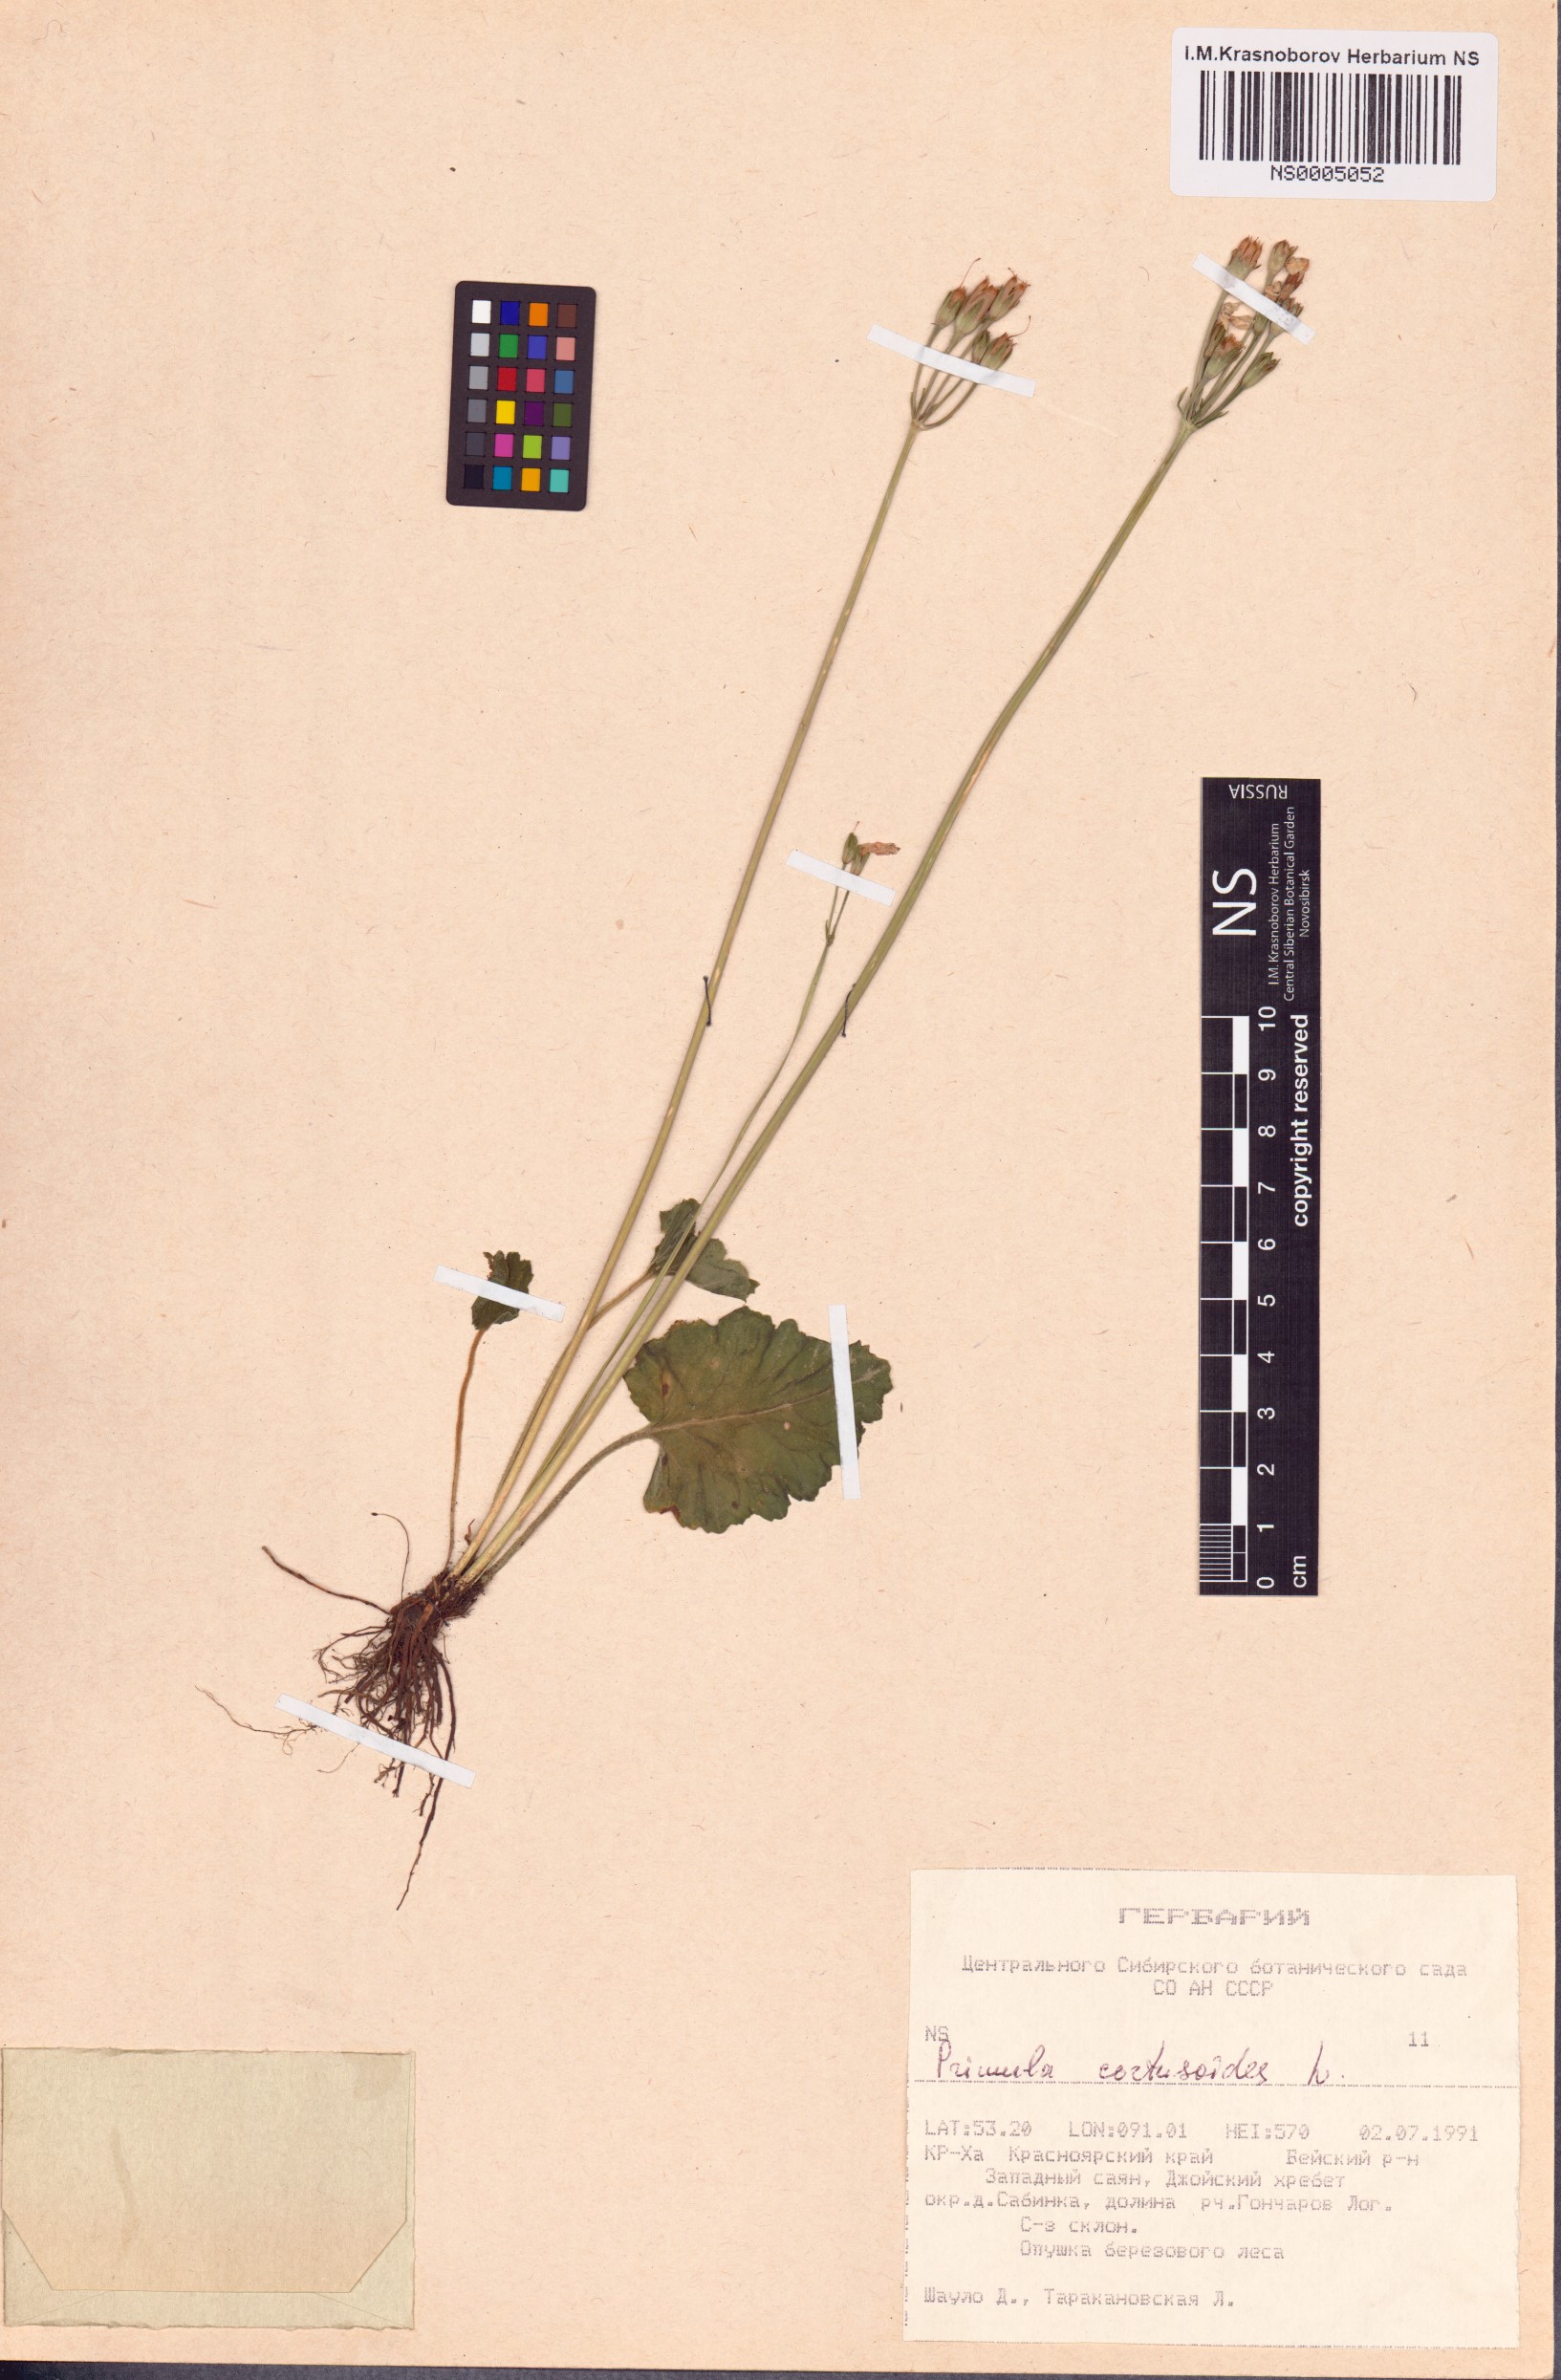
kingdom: Plantae
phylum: Tracheophyta
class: Magnoliopsida
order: Ericales
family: Primulaceae
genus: Primula
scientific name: Primula cortusoides
